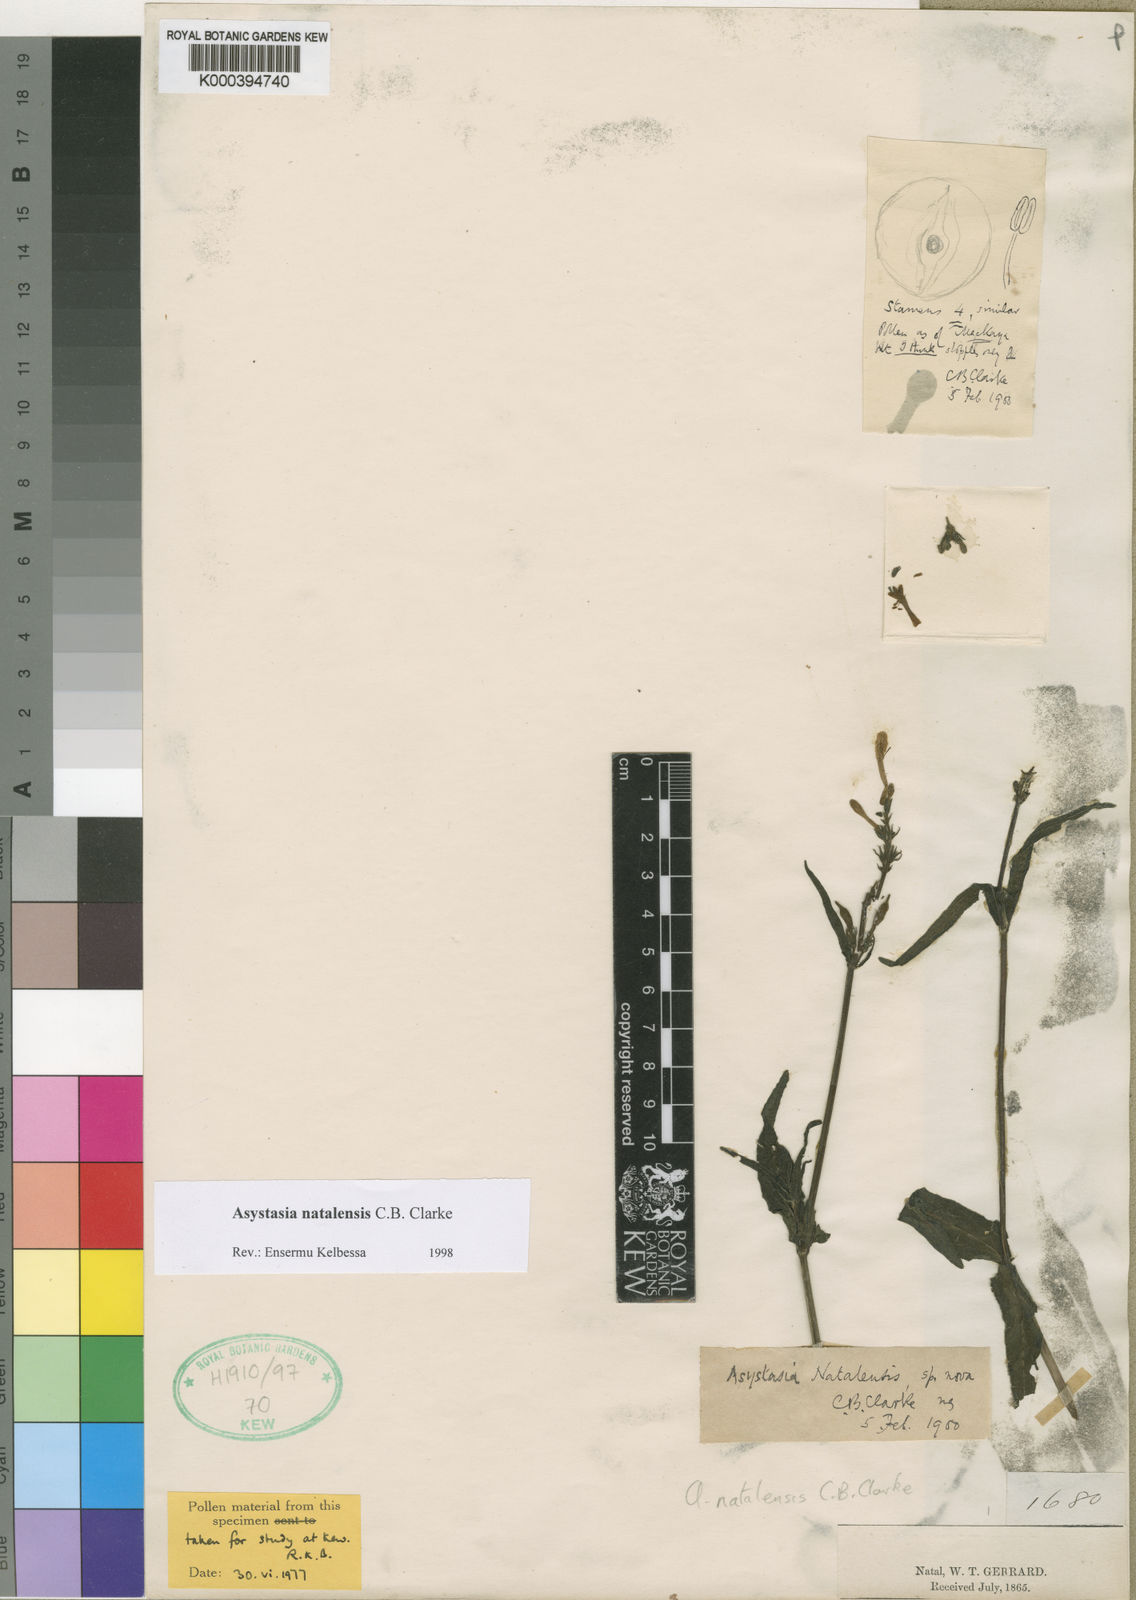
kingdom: Plantae
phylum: Tracheophyta
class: Magnoliopsida
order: Lamiales
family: Acanthaceae
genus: Asystasia
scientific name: Asystasia natalensis
